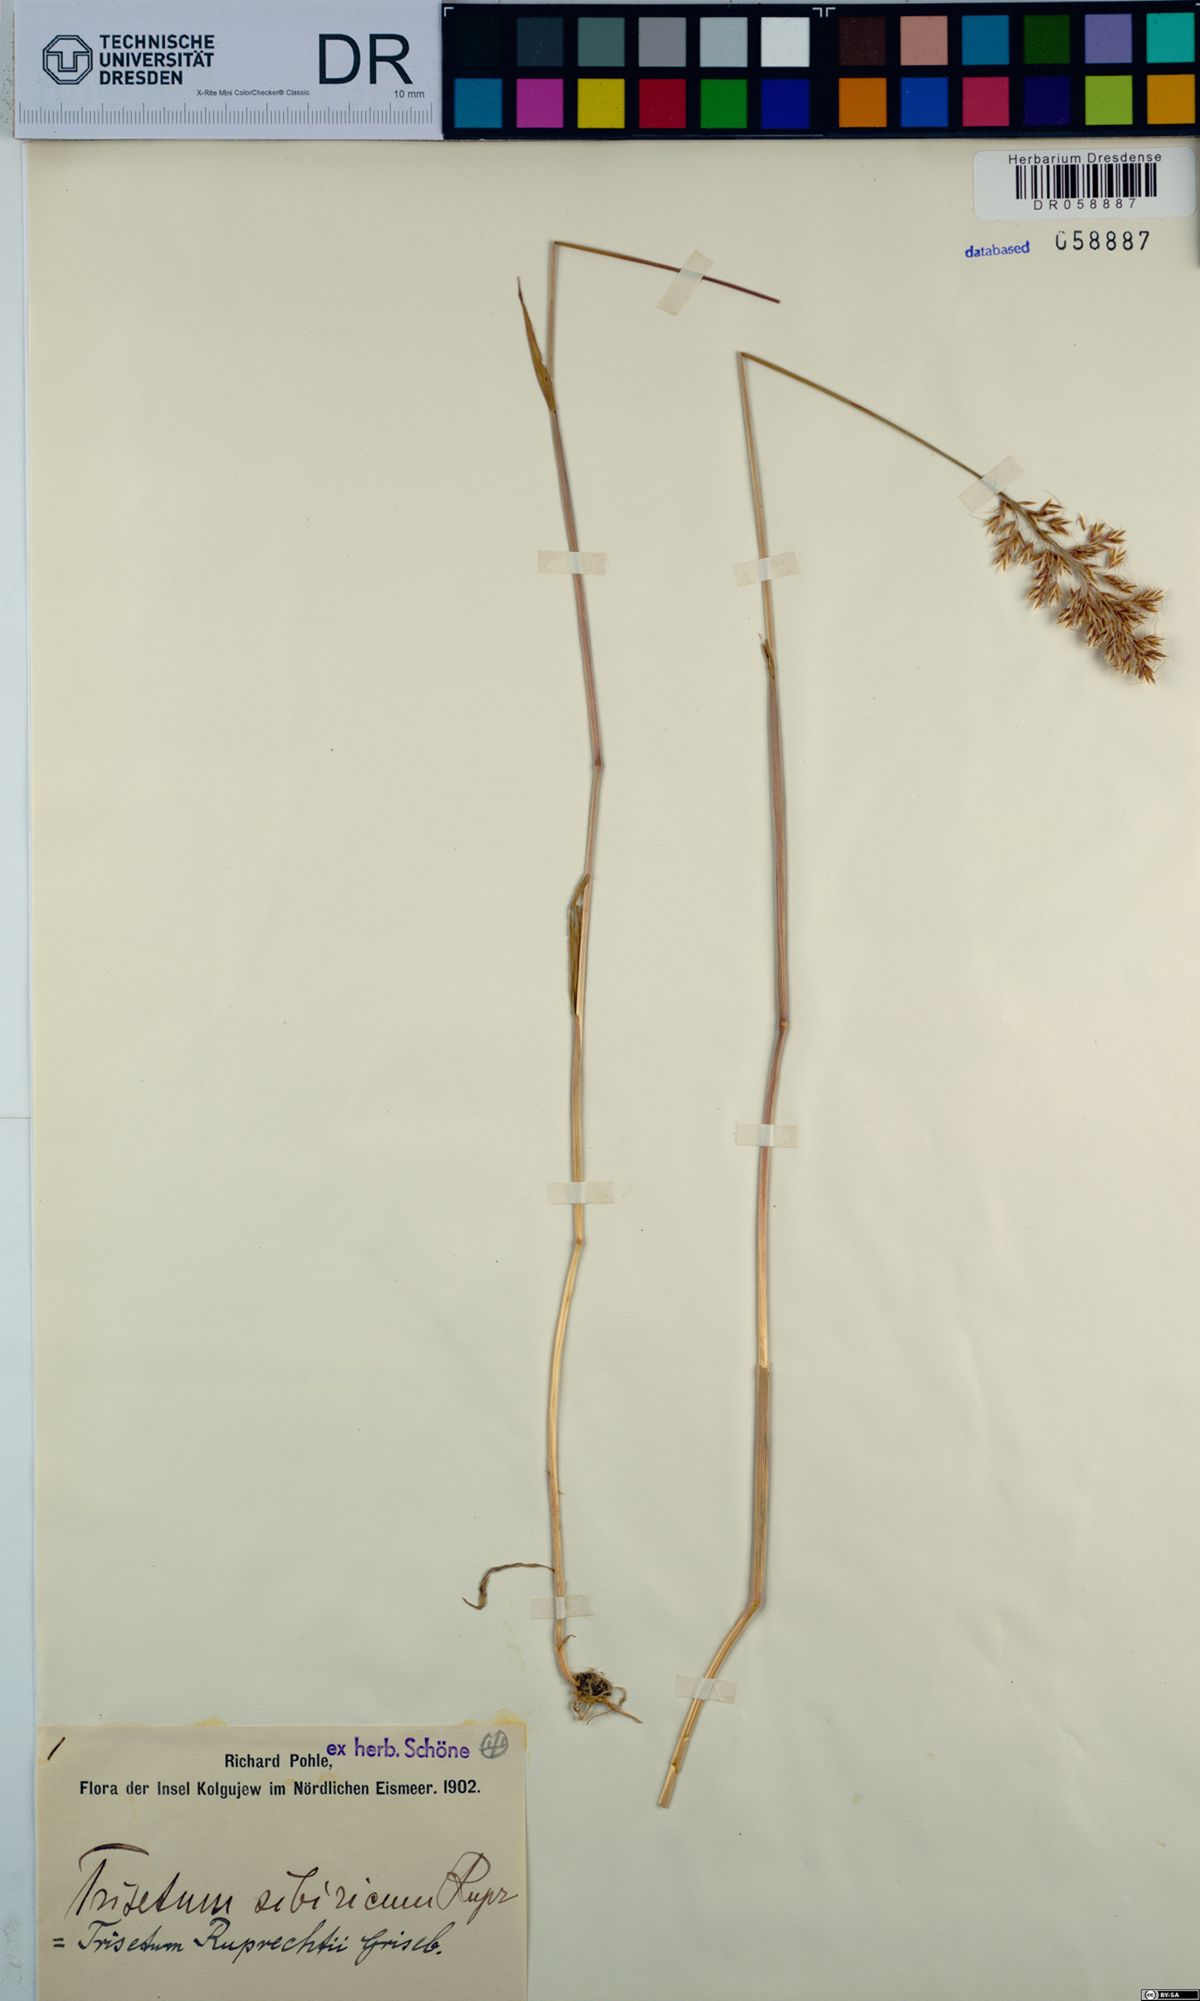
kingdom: Plantae
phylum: Tracheophyta
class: Liliopsida
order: Poales
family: Poaceae
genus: Sibirotrisetum
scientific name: Sibirotrisetum sibiricum
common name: Siberian false oat
